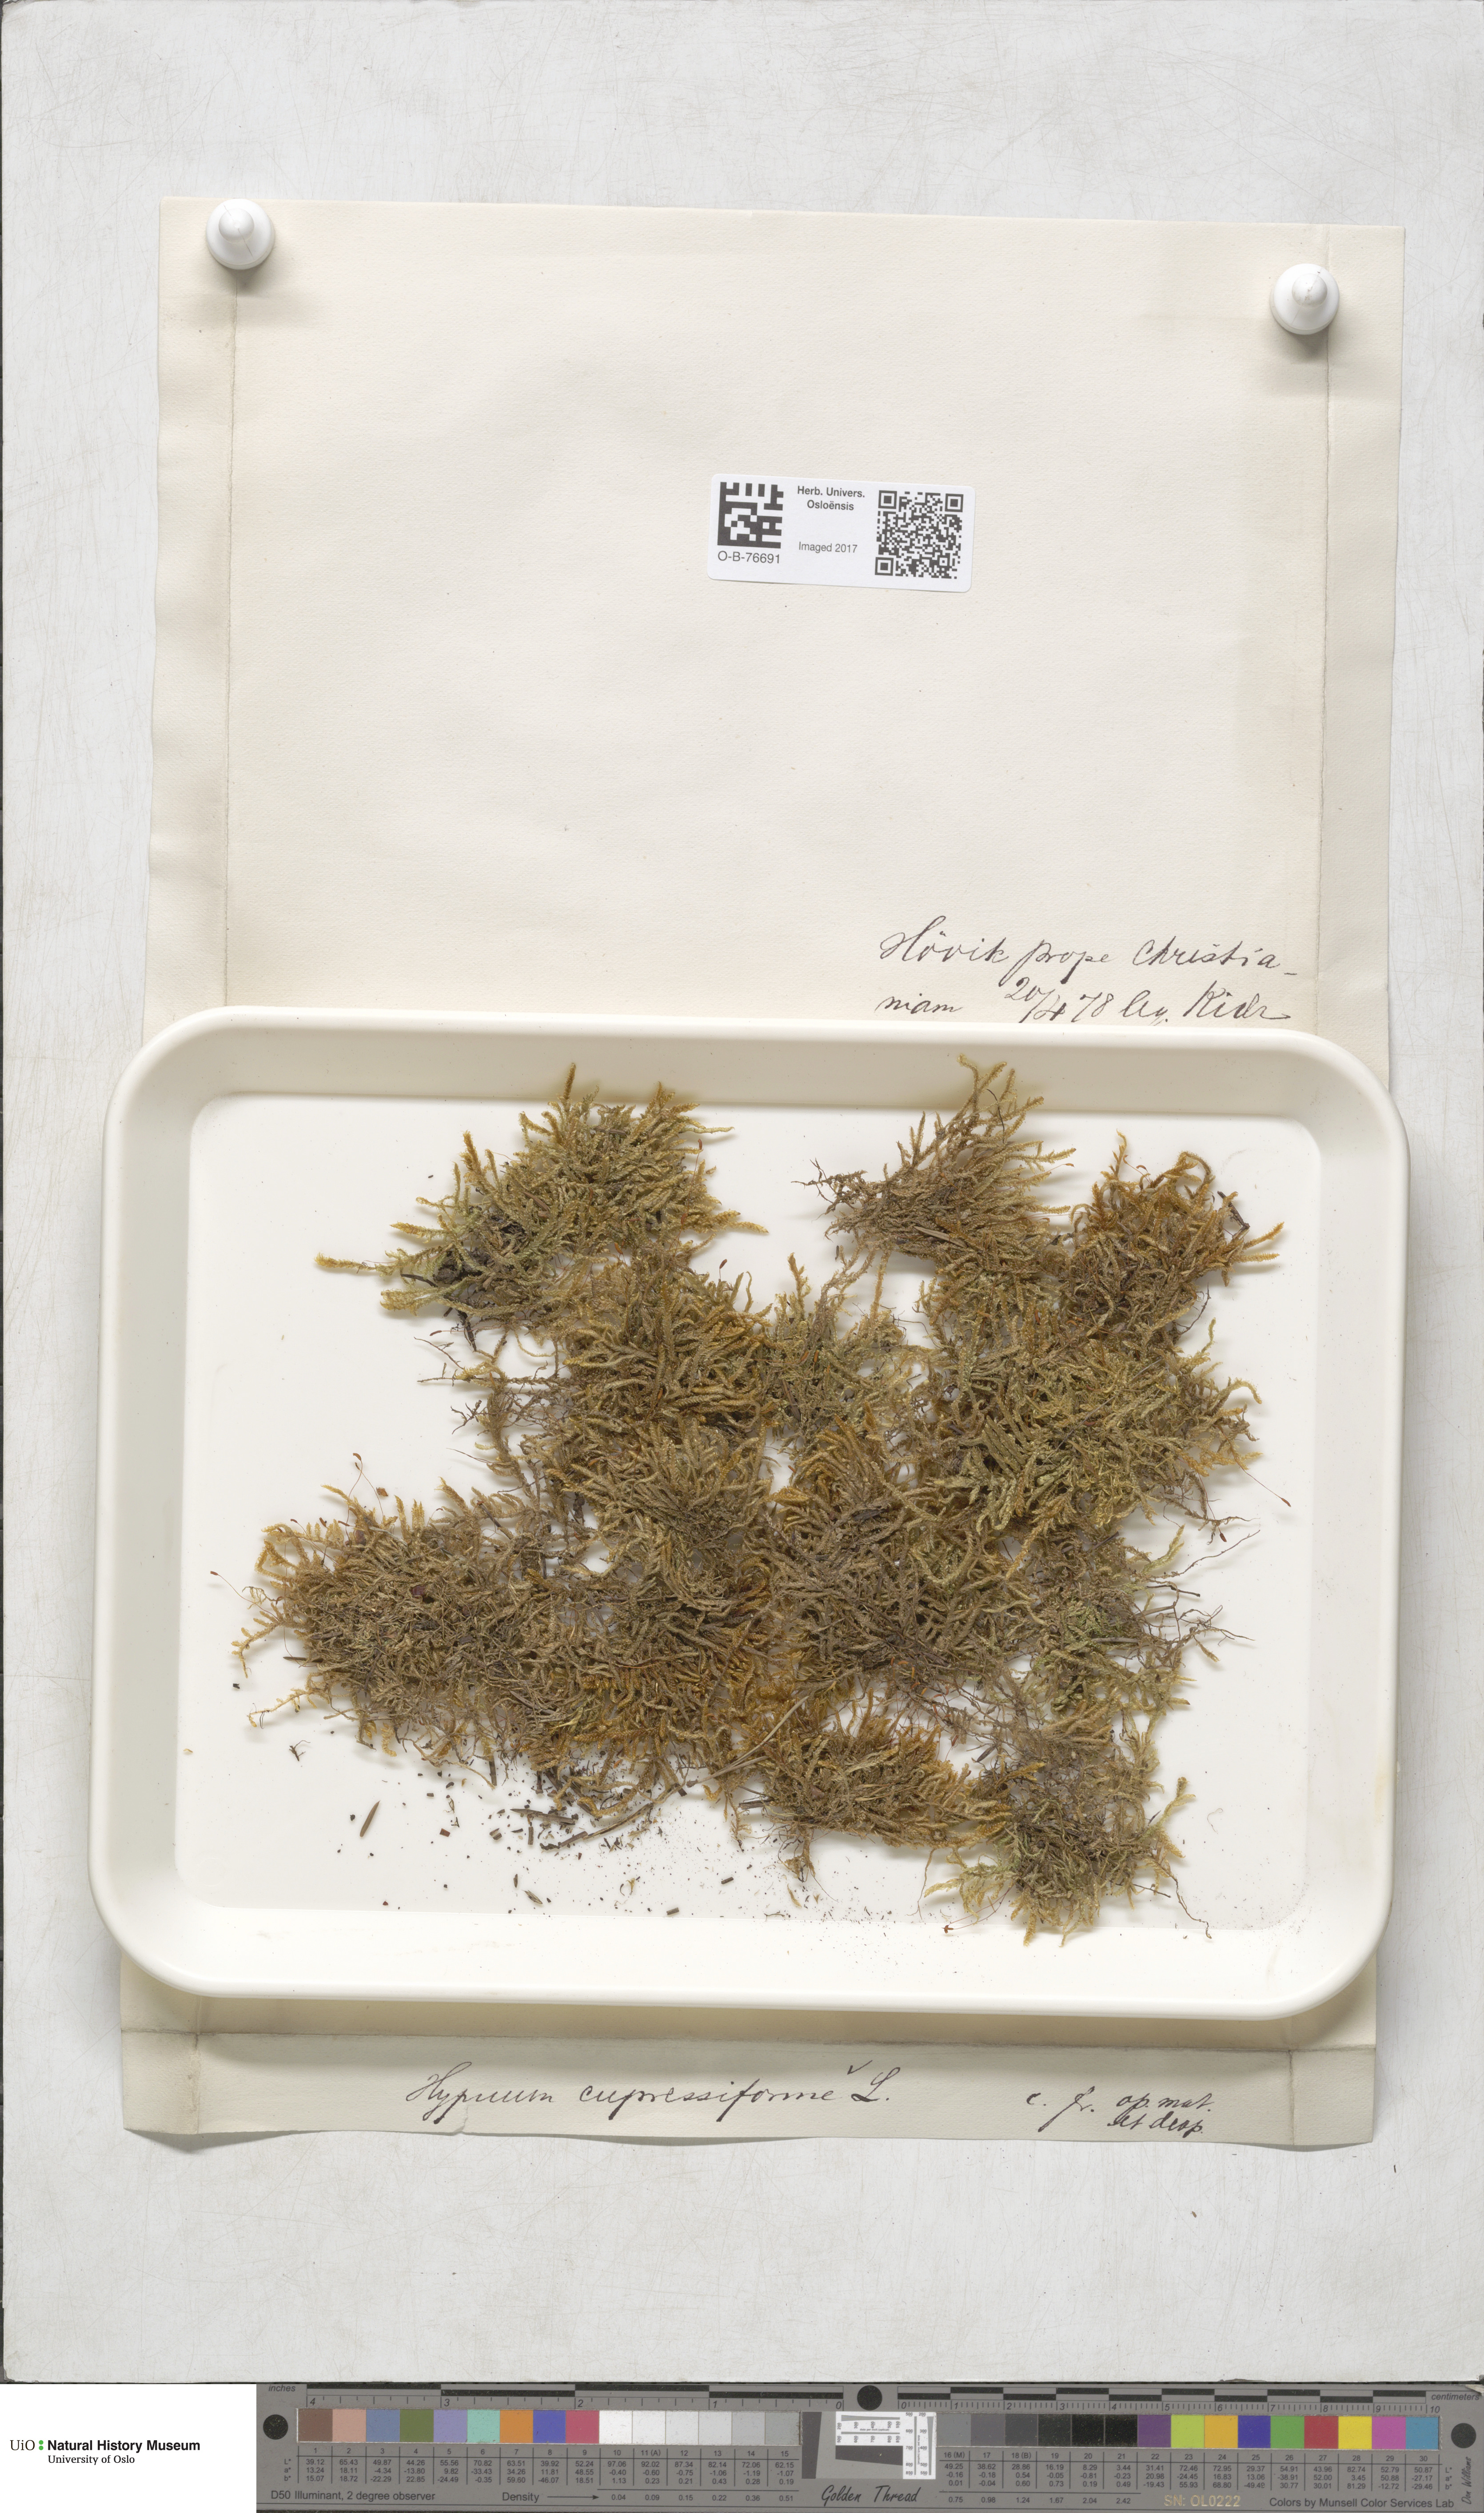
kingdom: Plantae
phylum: Bryophyta
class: Bryopsida
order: Hypnales
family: Hypnaceae
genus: Hypnum
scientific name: Hypnum cupressiforme
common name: Cypress-leaved plait-moss
